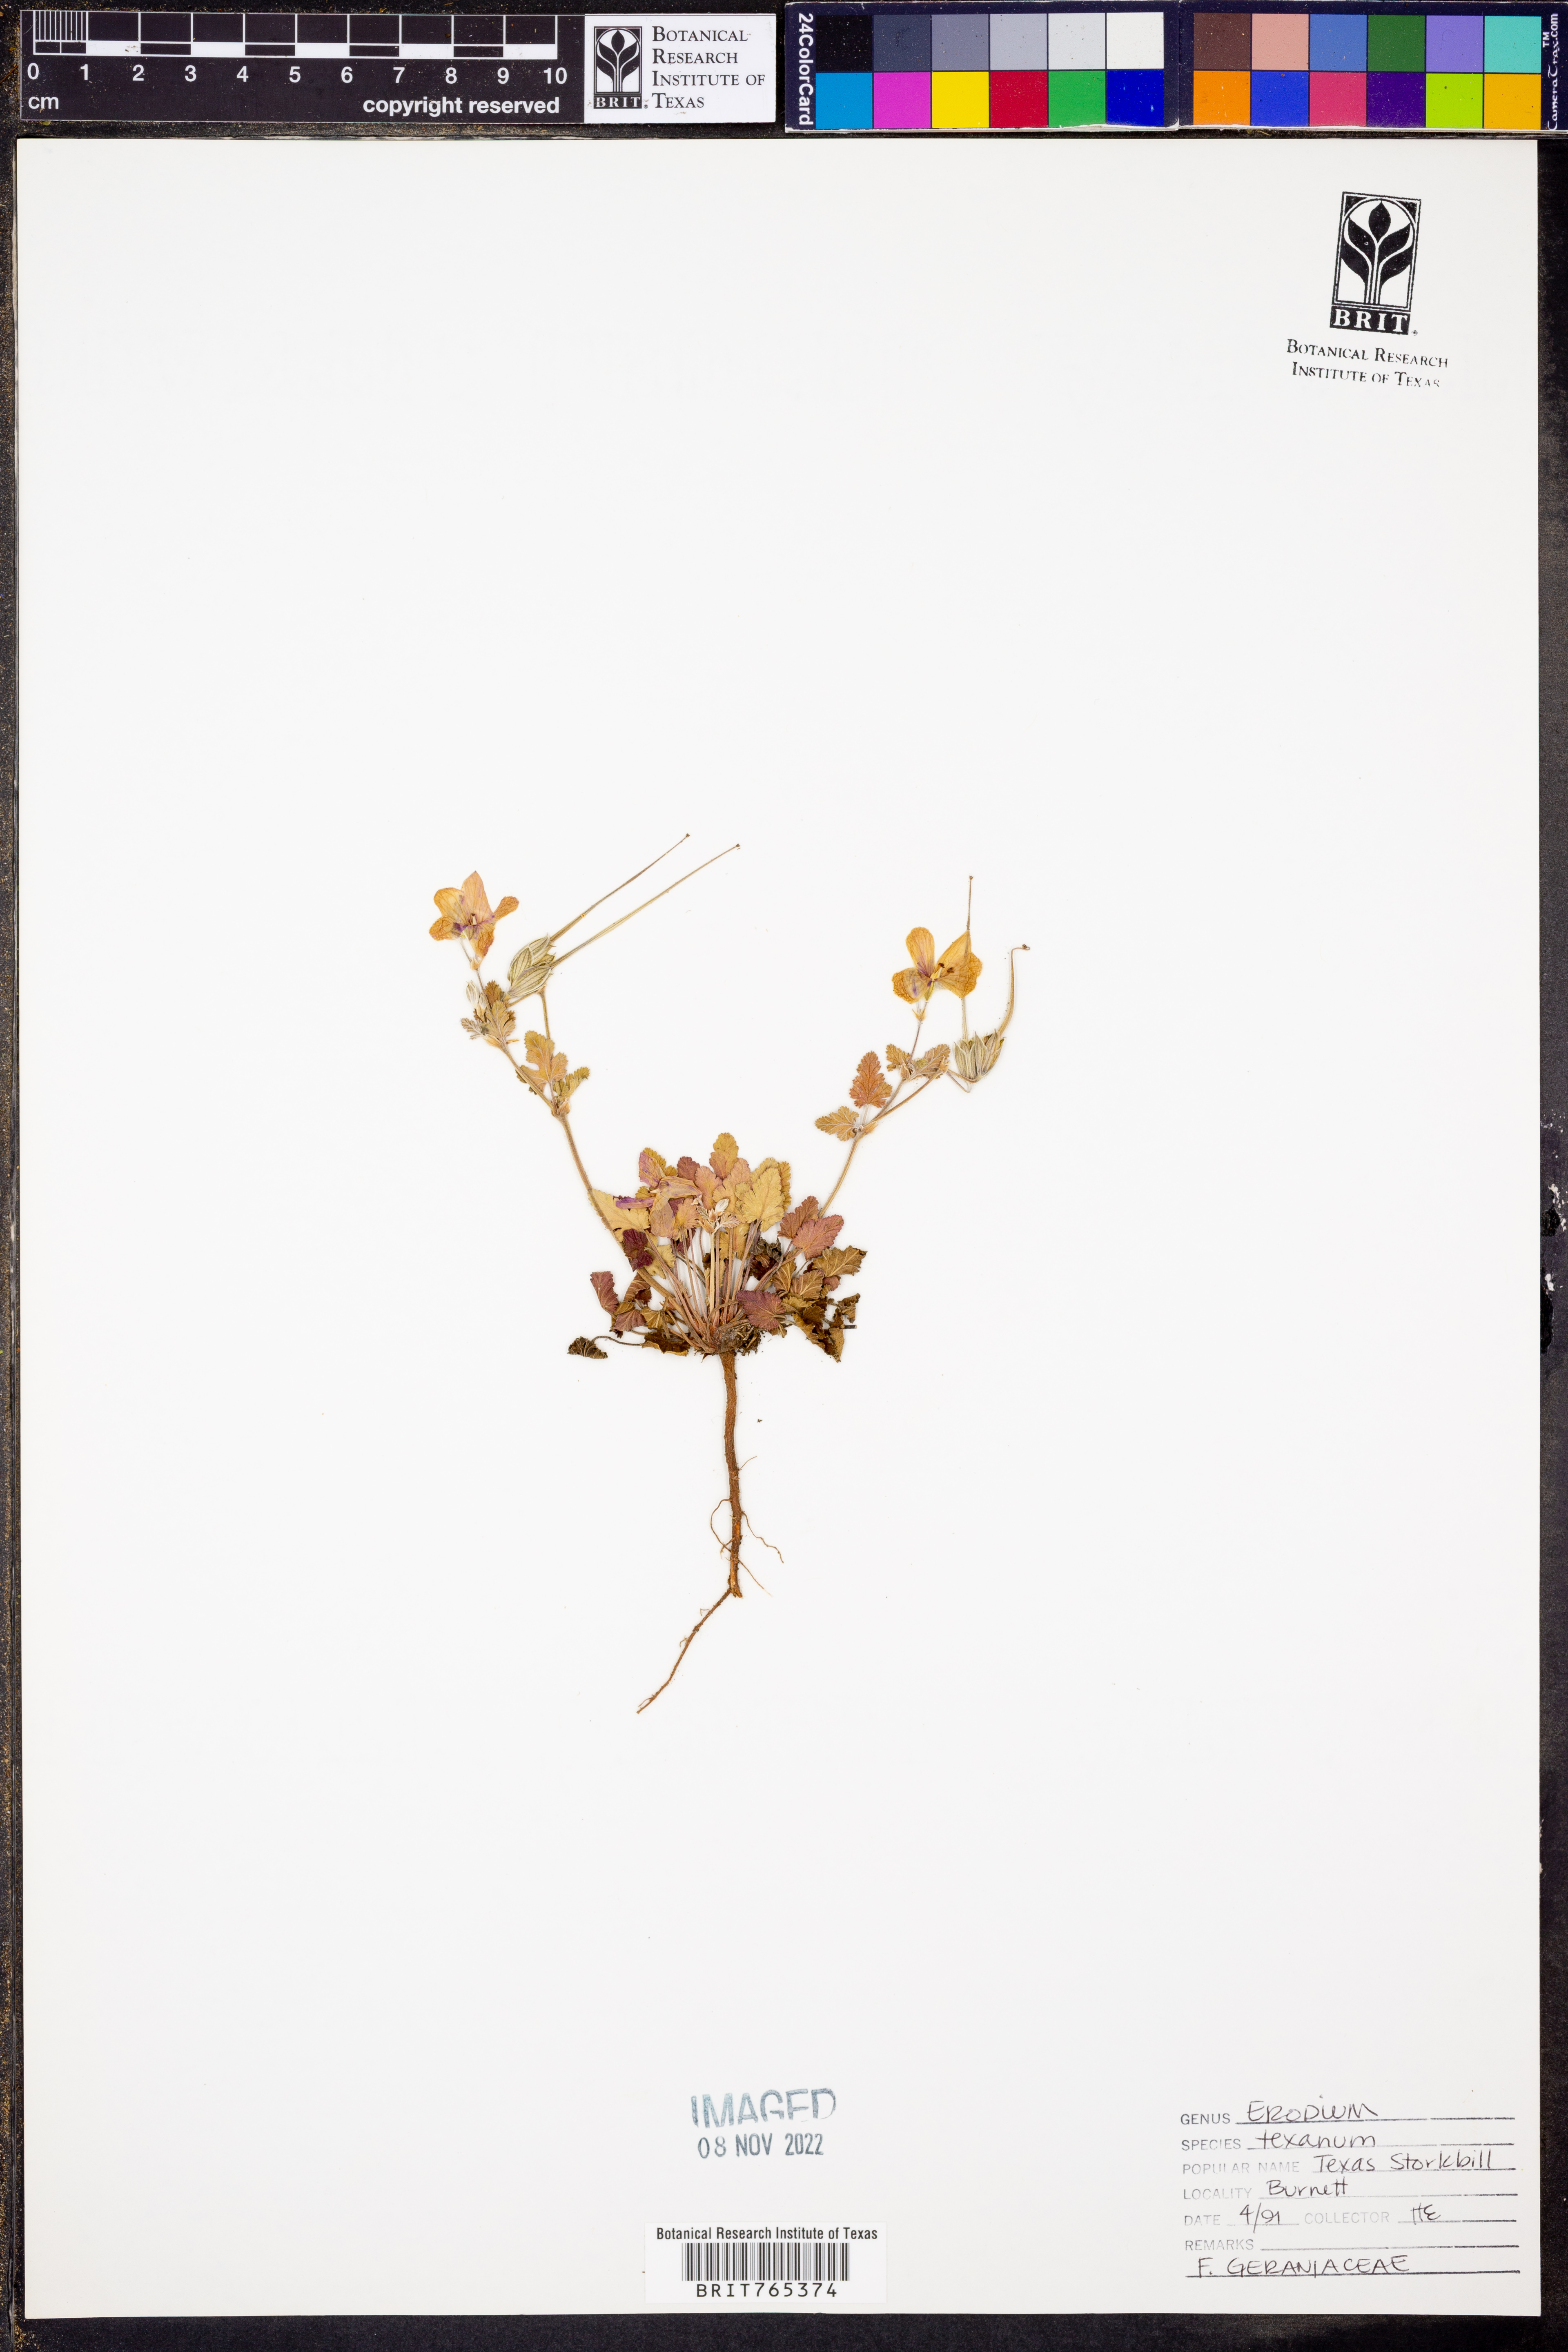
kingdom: Plantae
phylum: Tracheophyta
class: Magnoliopsida
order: Geraniales
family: Geraniaceae
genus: Erodium
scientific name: Erodium texanum
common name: Texas stork's-bill
